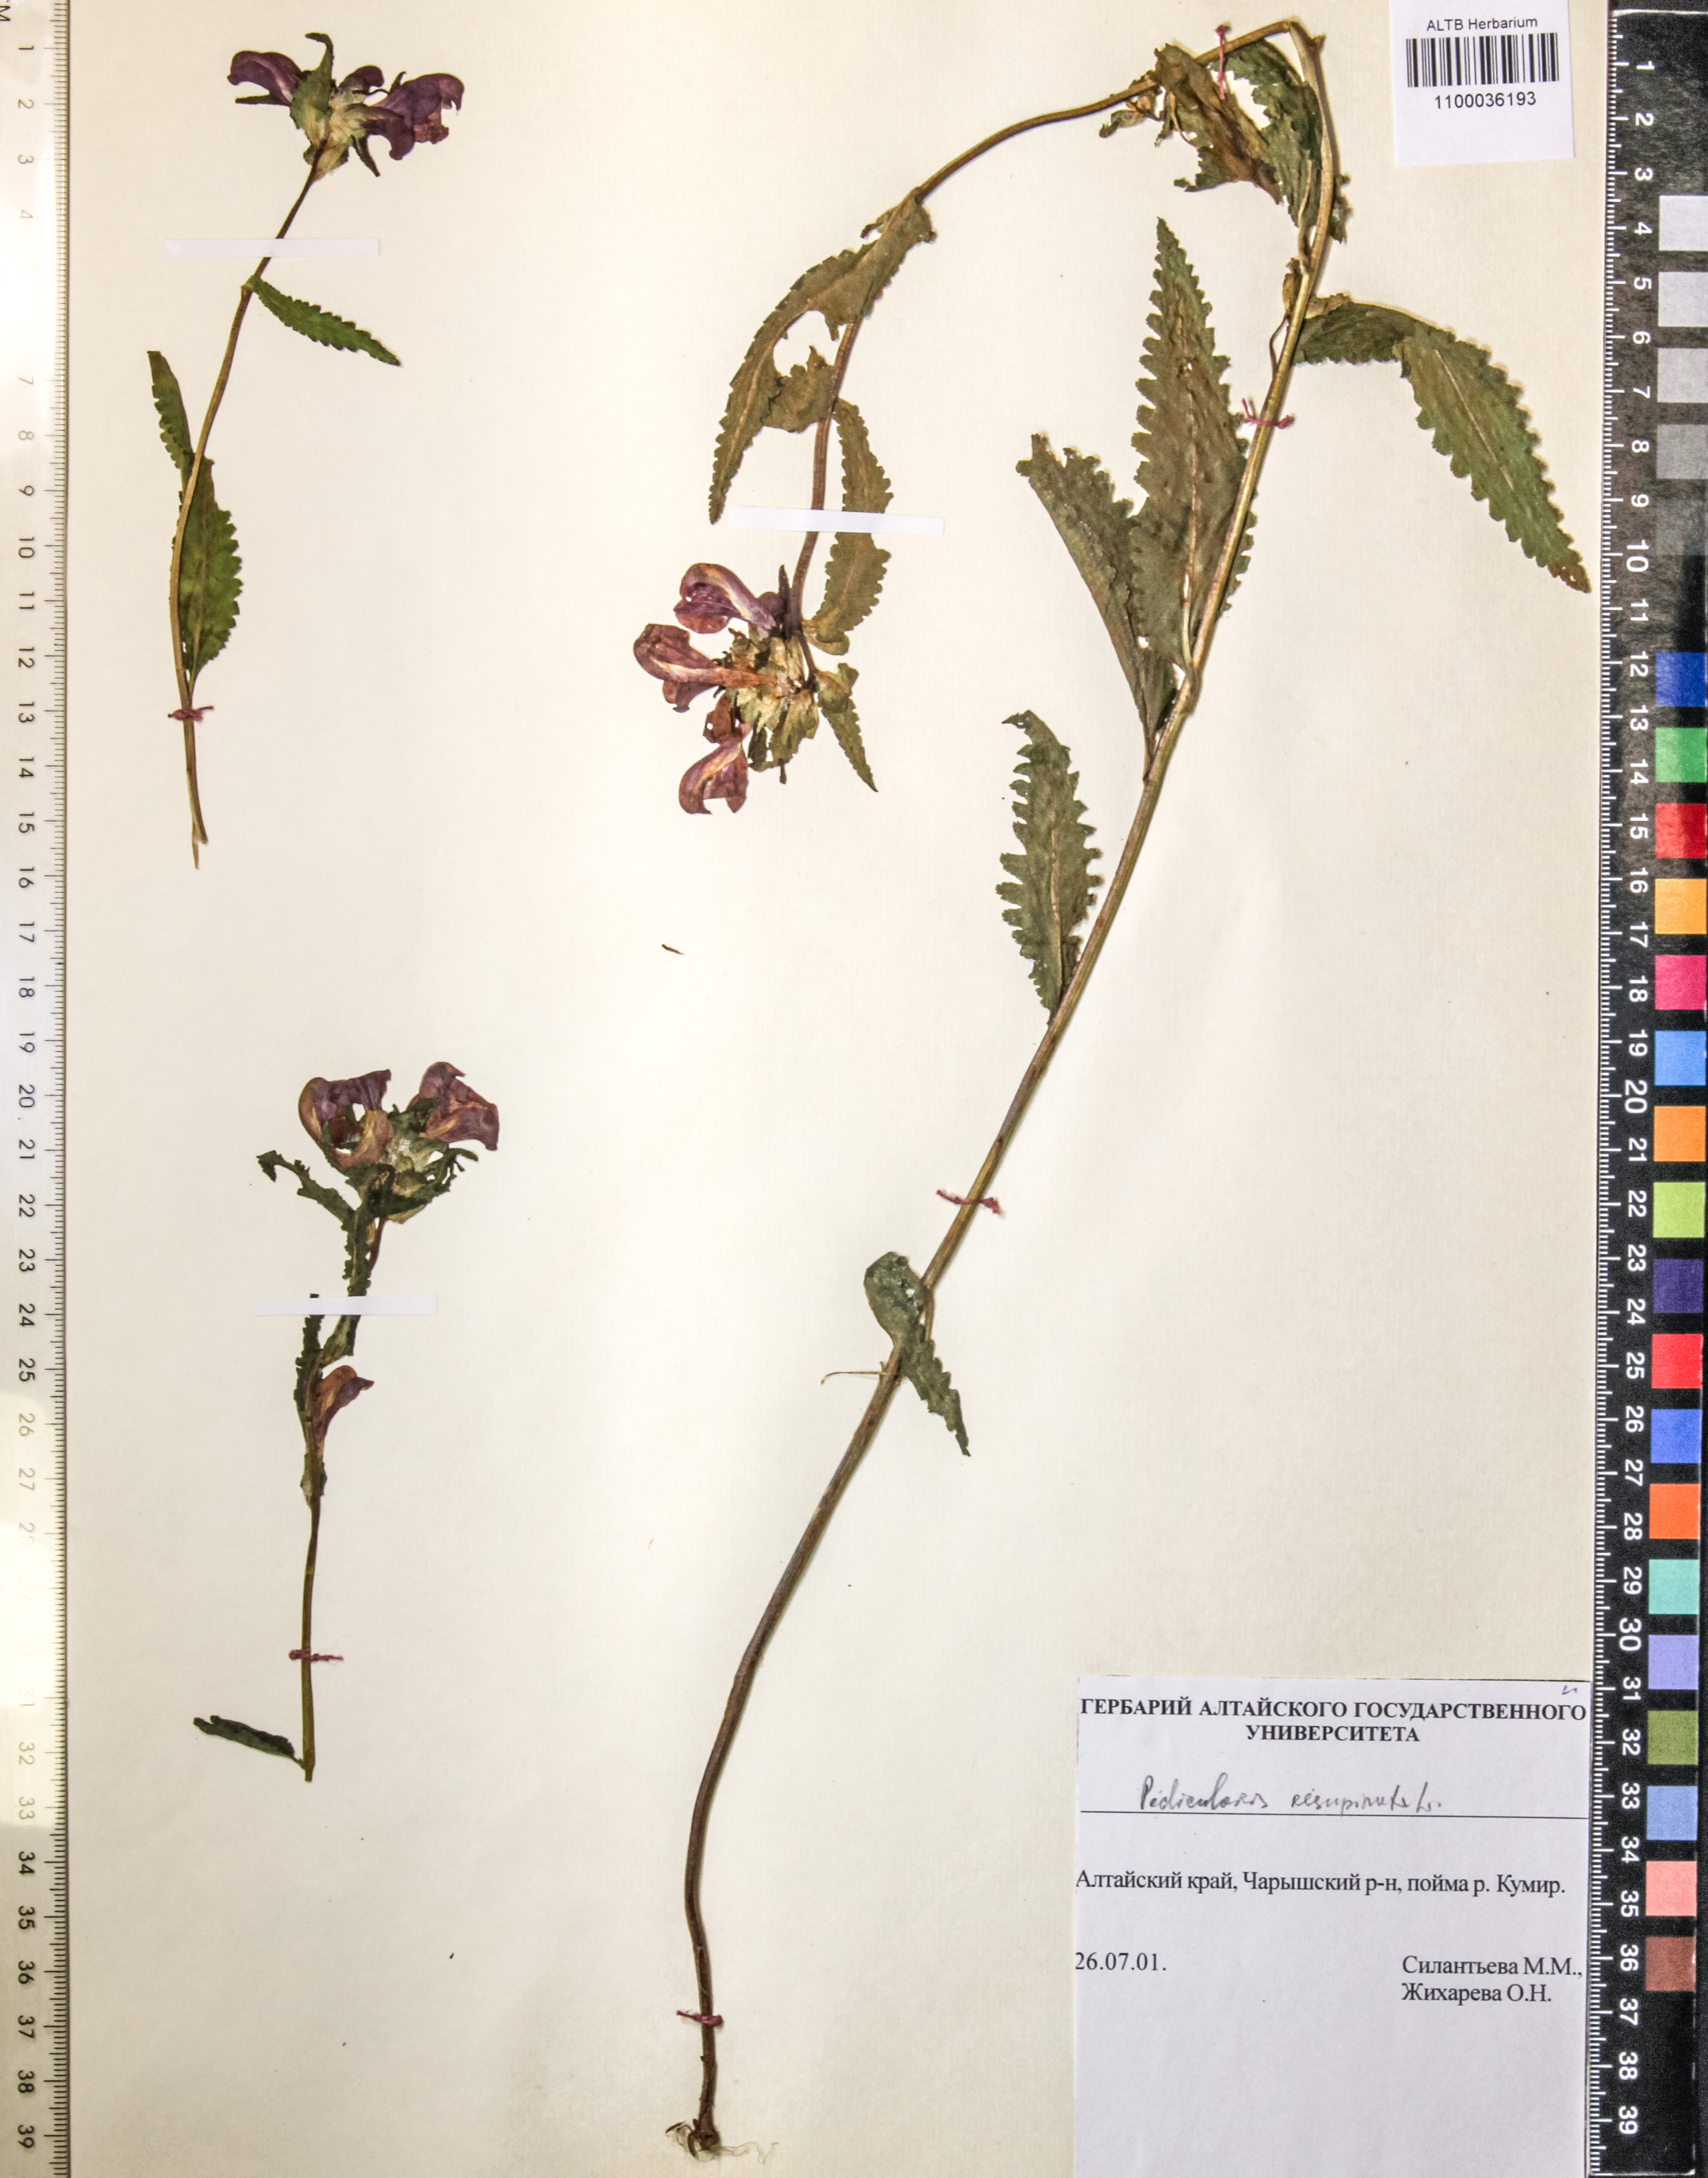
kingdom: Plantae
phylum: Tracheophyta
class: Magnoliopsida
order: Lamiales
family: Orobanchaceae
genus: Pedicularis
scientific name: Pedicularis resupinata
